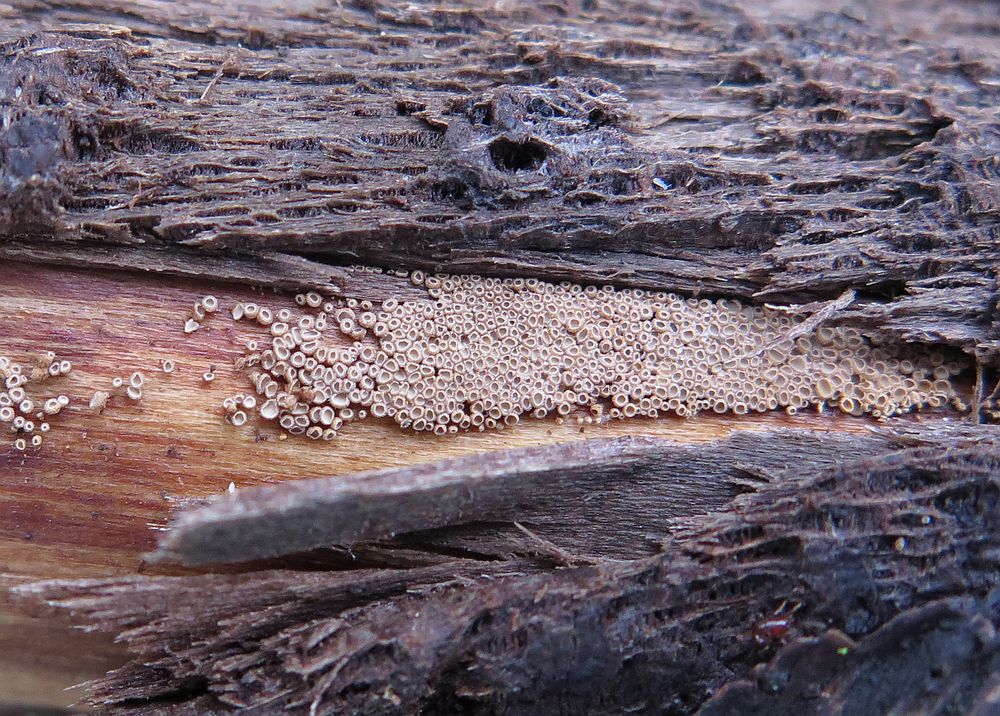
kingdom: Fungi
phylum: Basidiomycota
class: Agaricomycetes
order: Agaricales
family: Niaceae
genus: Merismodes
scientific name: Merismodes anomala
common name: almindelig læderskål
